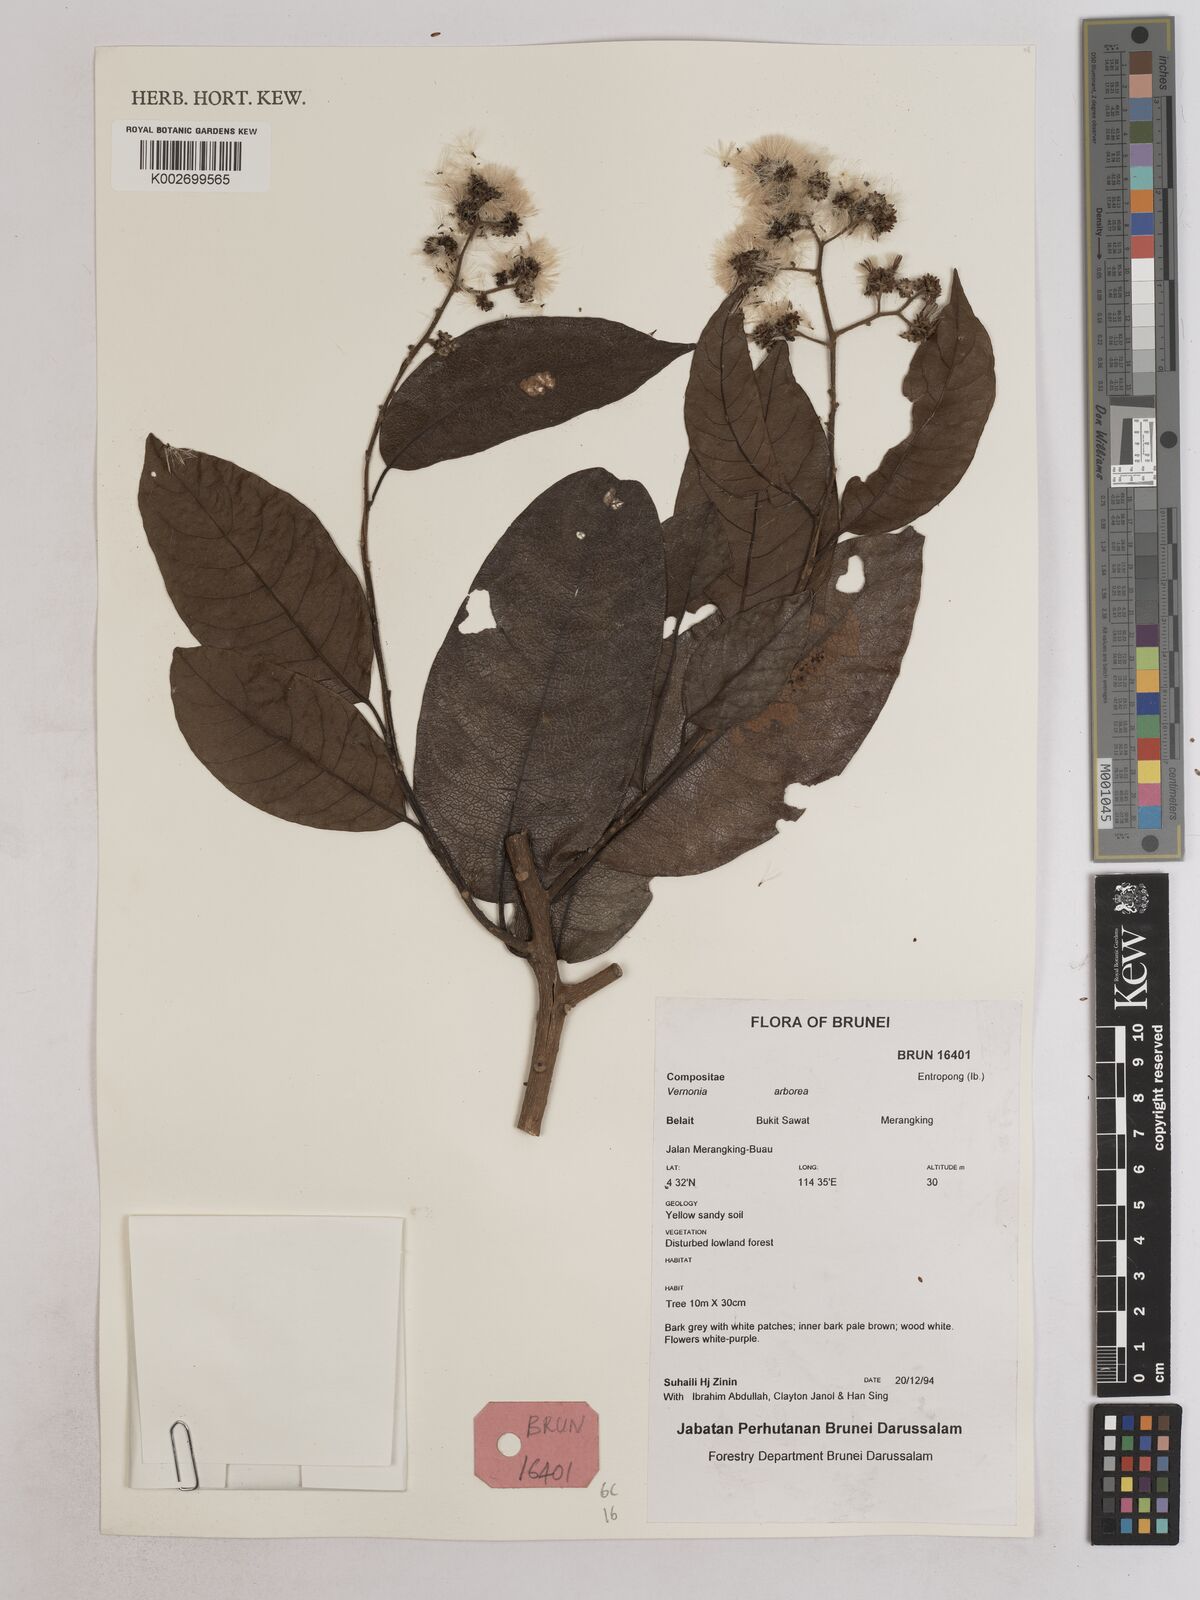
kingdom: Plantae
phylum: Tracheophyta
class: Magnoliopsida
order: Asterales
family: Asteraceae
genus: Strobocalyx
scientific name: Strobocalyx arborea
